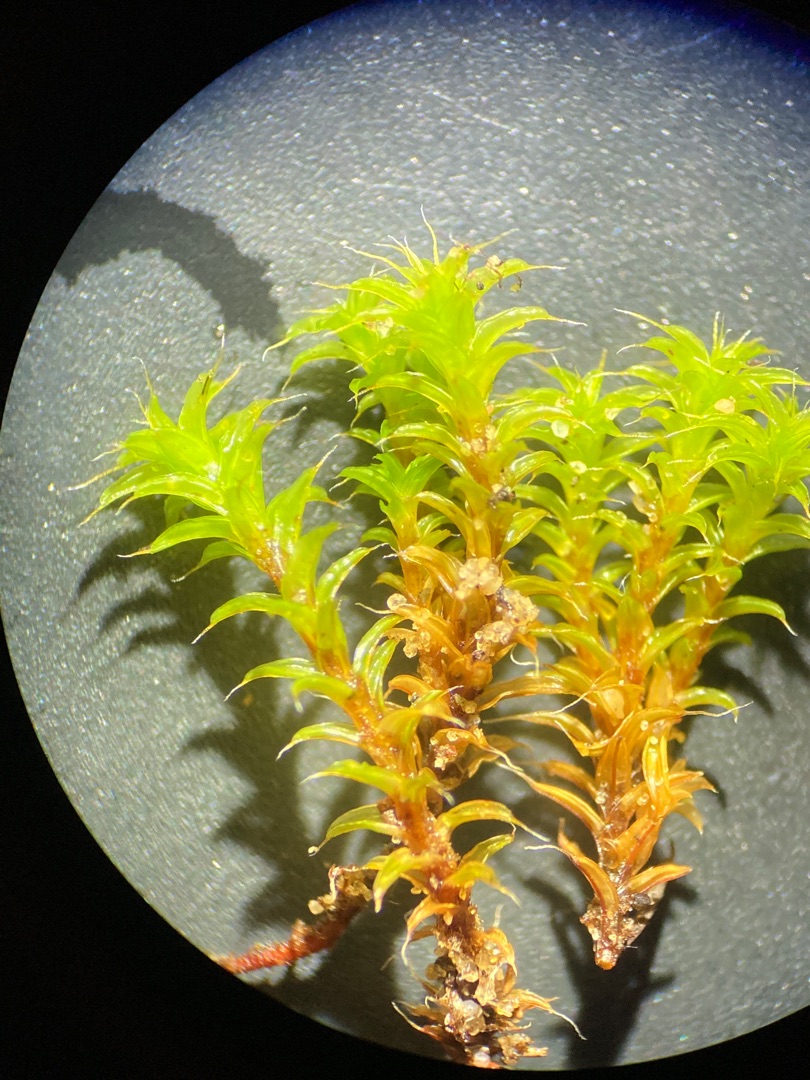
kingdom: Plantae
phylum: Bryophyta
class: Bryopsida
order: Pottiales
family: Pottiaceae
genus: Syntrichia
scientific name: Syntrichia ruralis
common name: Spidsbladet hårstjerne
